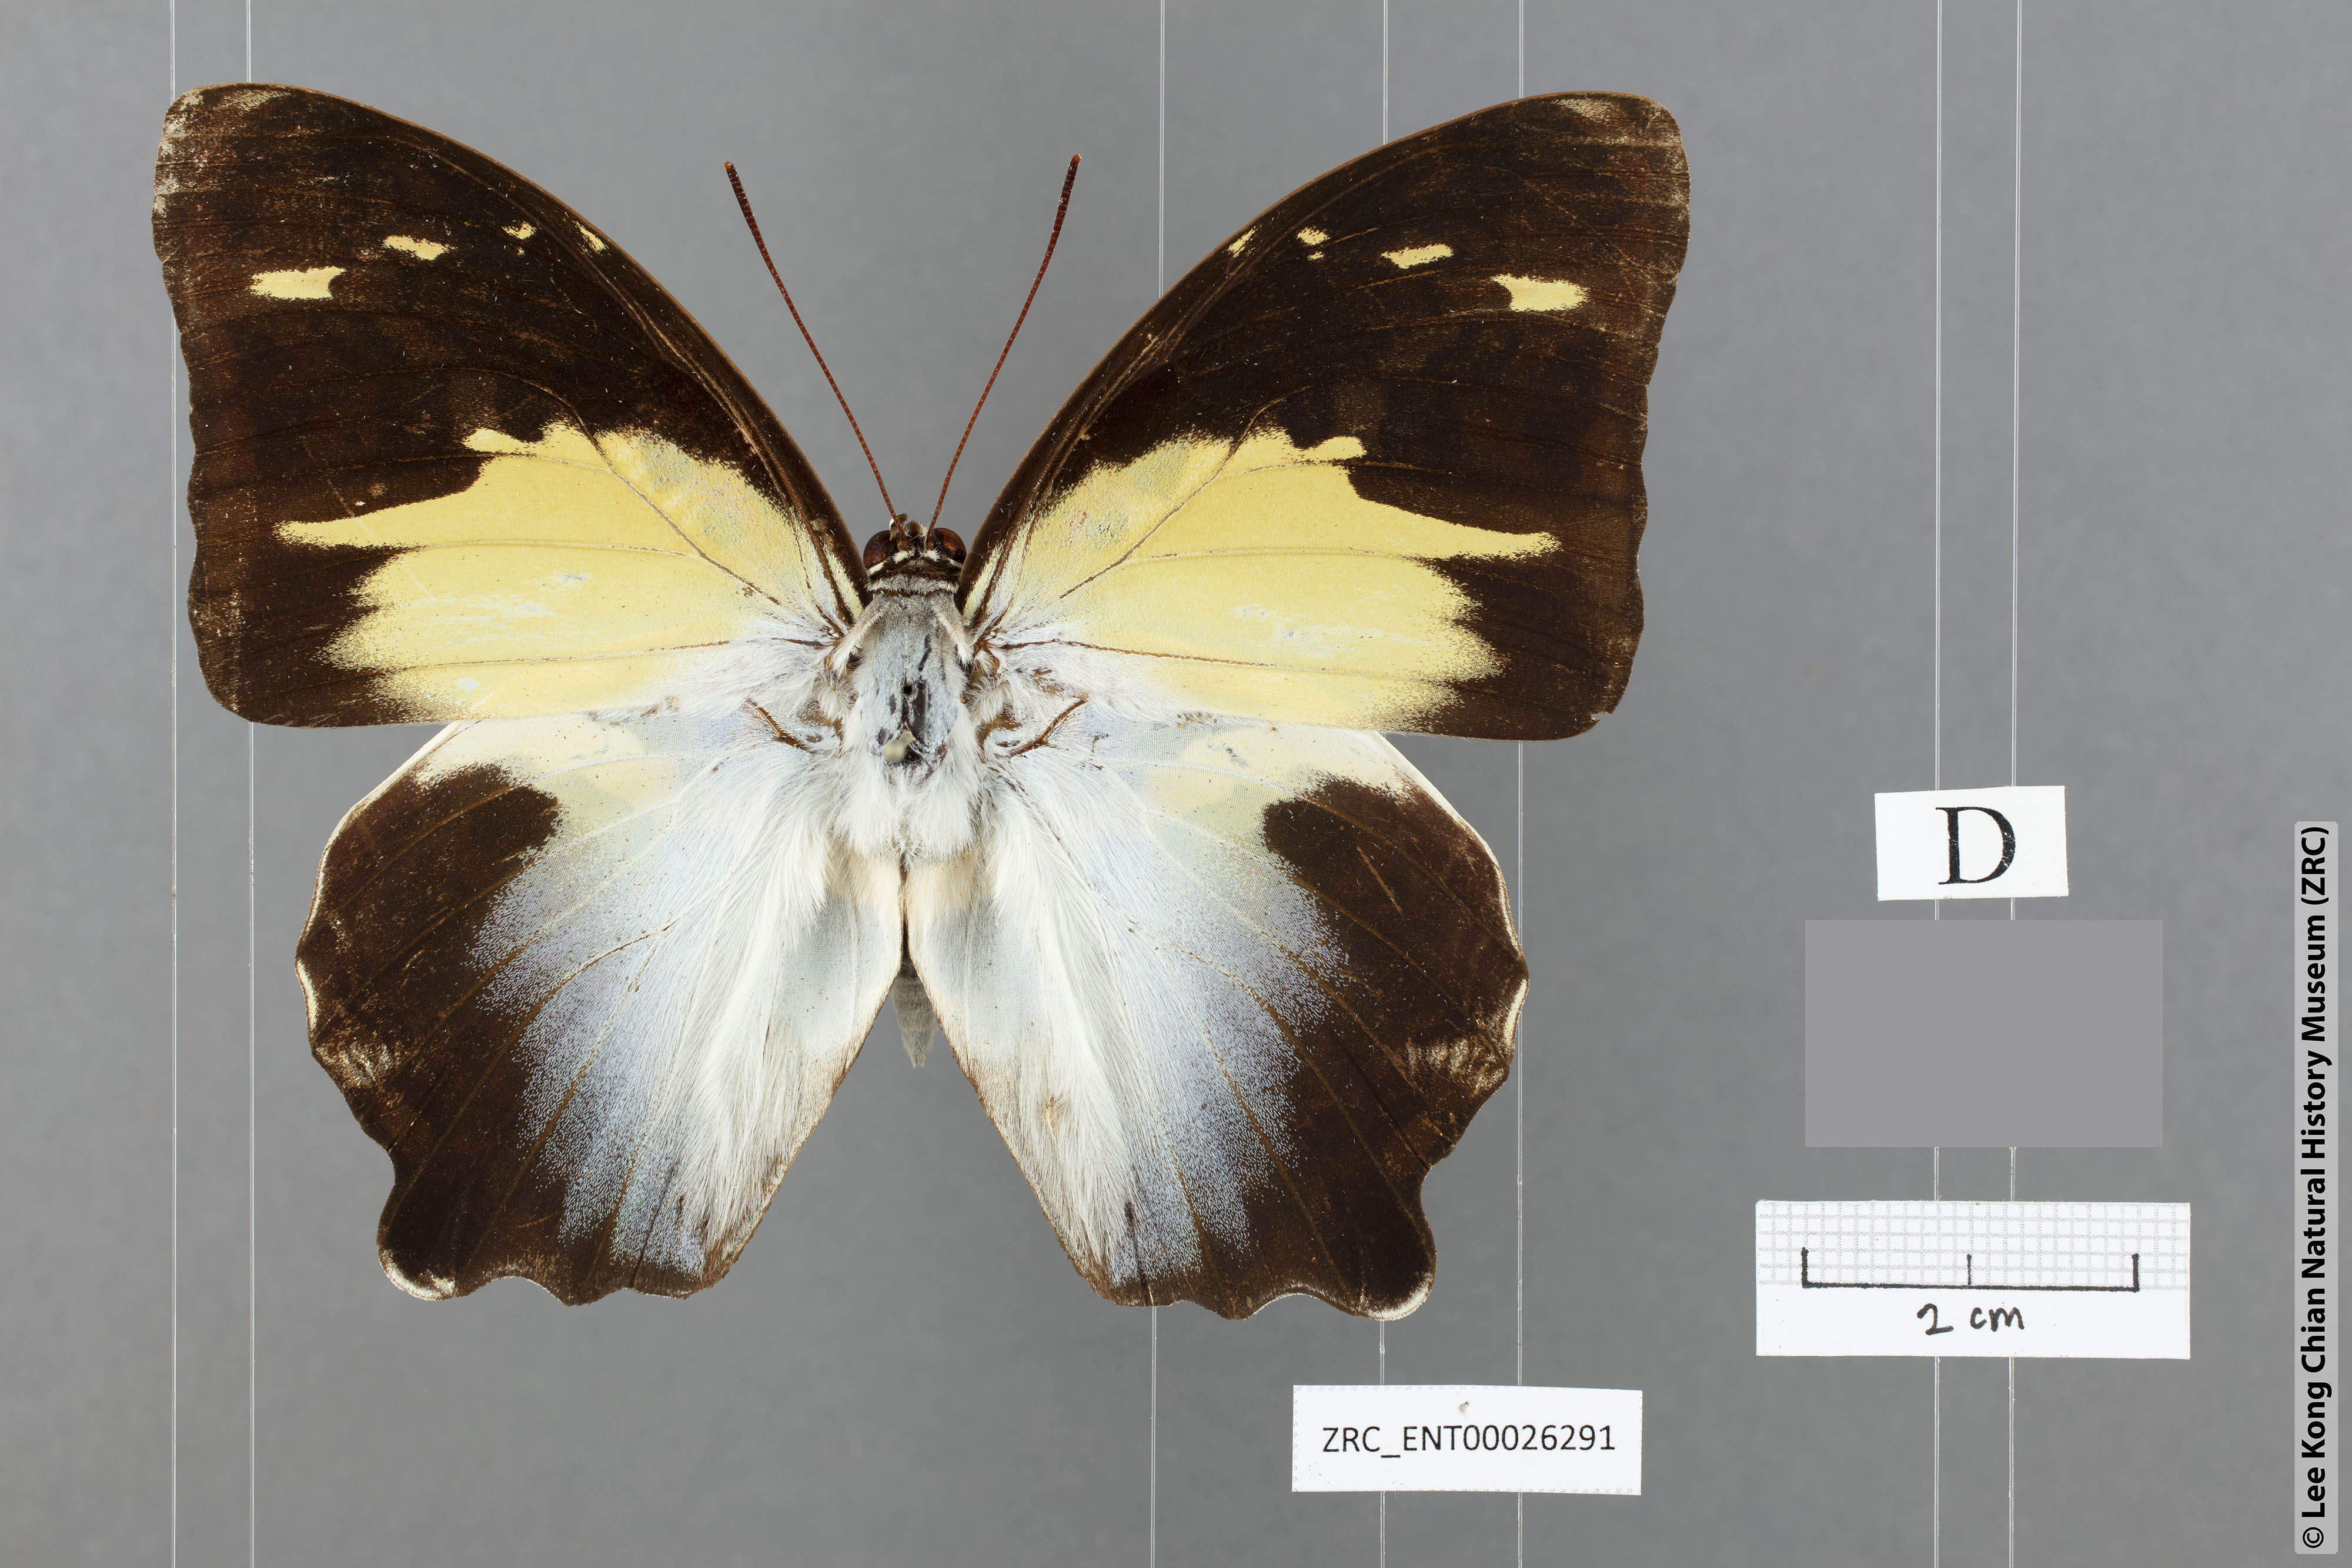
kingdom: Animalia
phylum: Arthropoda
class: Insecta
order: Lepidoptera
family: Nymphalidae
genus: Prothoe
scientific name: Prothoe Agatasa calydonia
